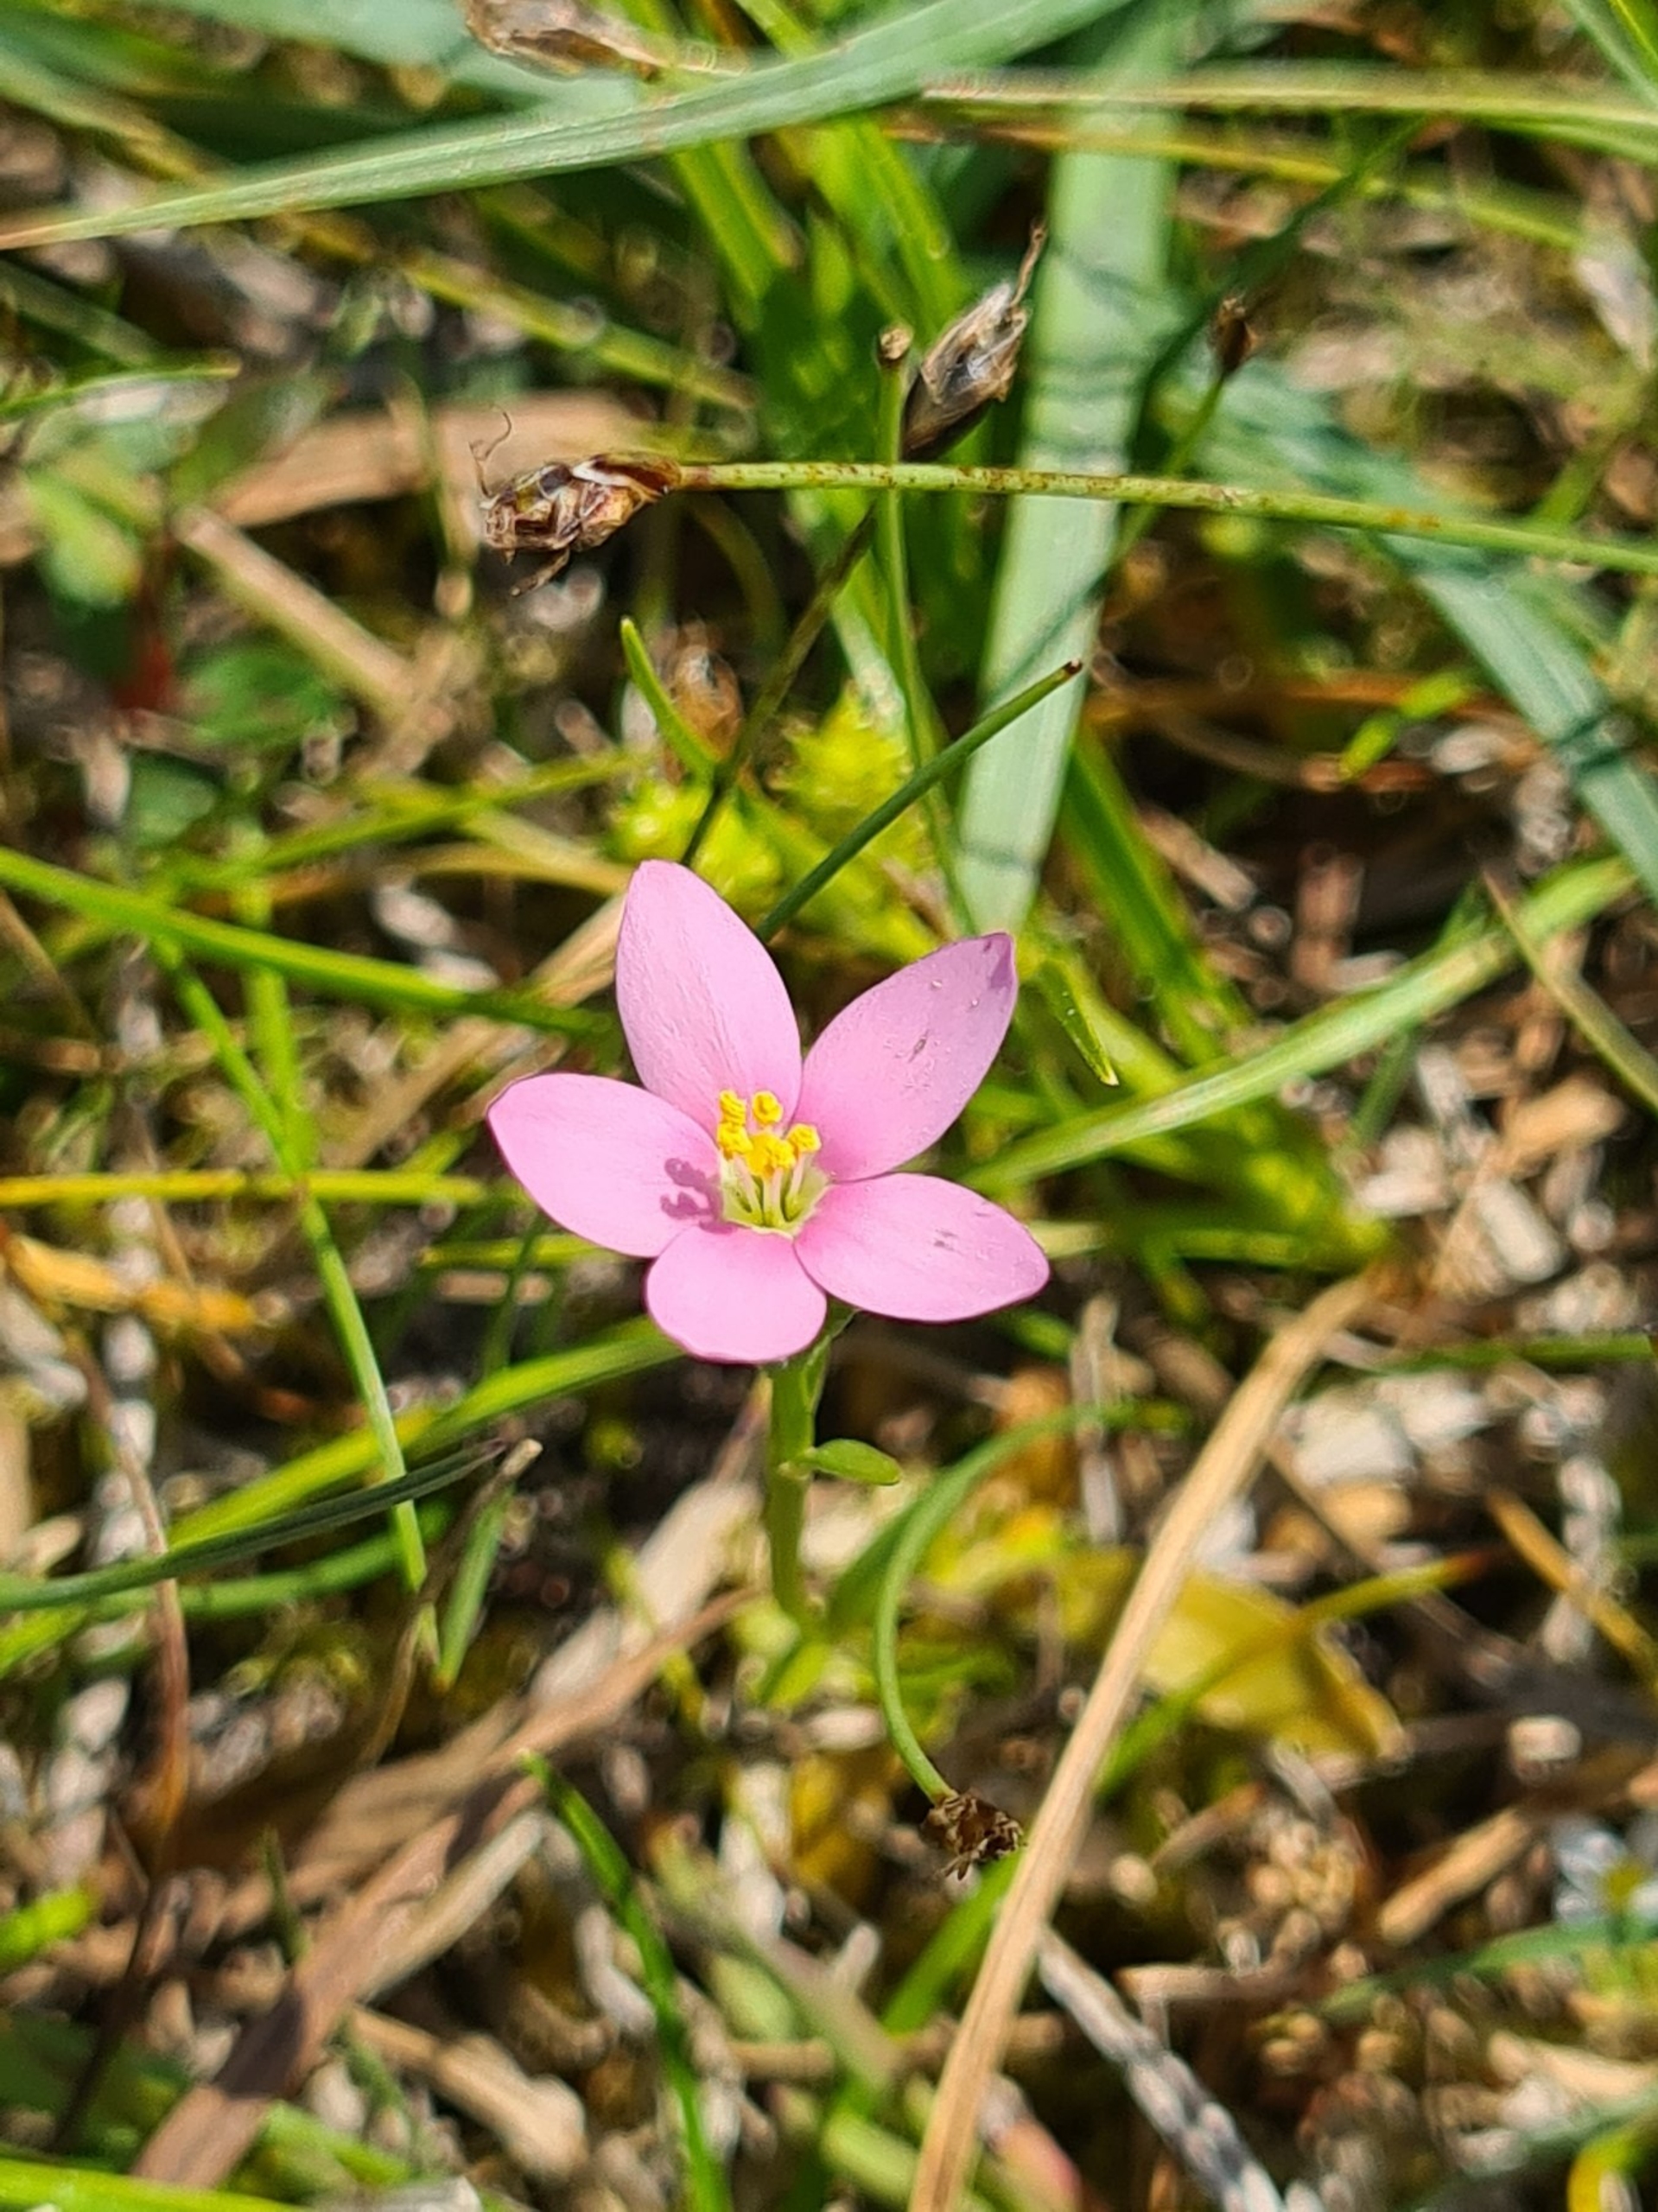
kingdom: Plantae
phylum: Tracheophyta
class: Magnoliopsida
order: Gentianales
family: Gentianaceae
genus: Centaurium
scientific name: Centaurium littorale
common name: Strand-tusindgylden
